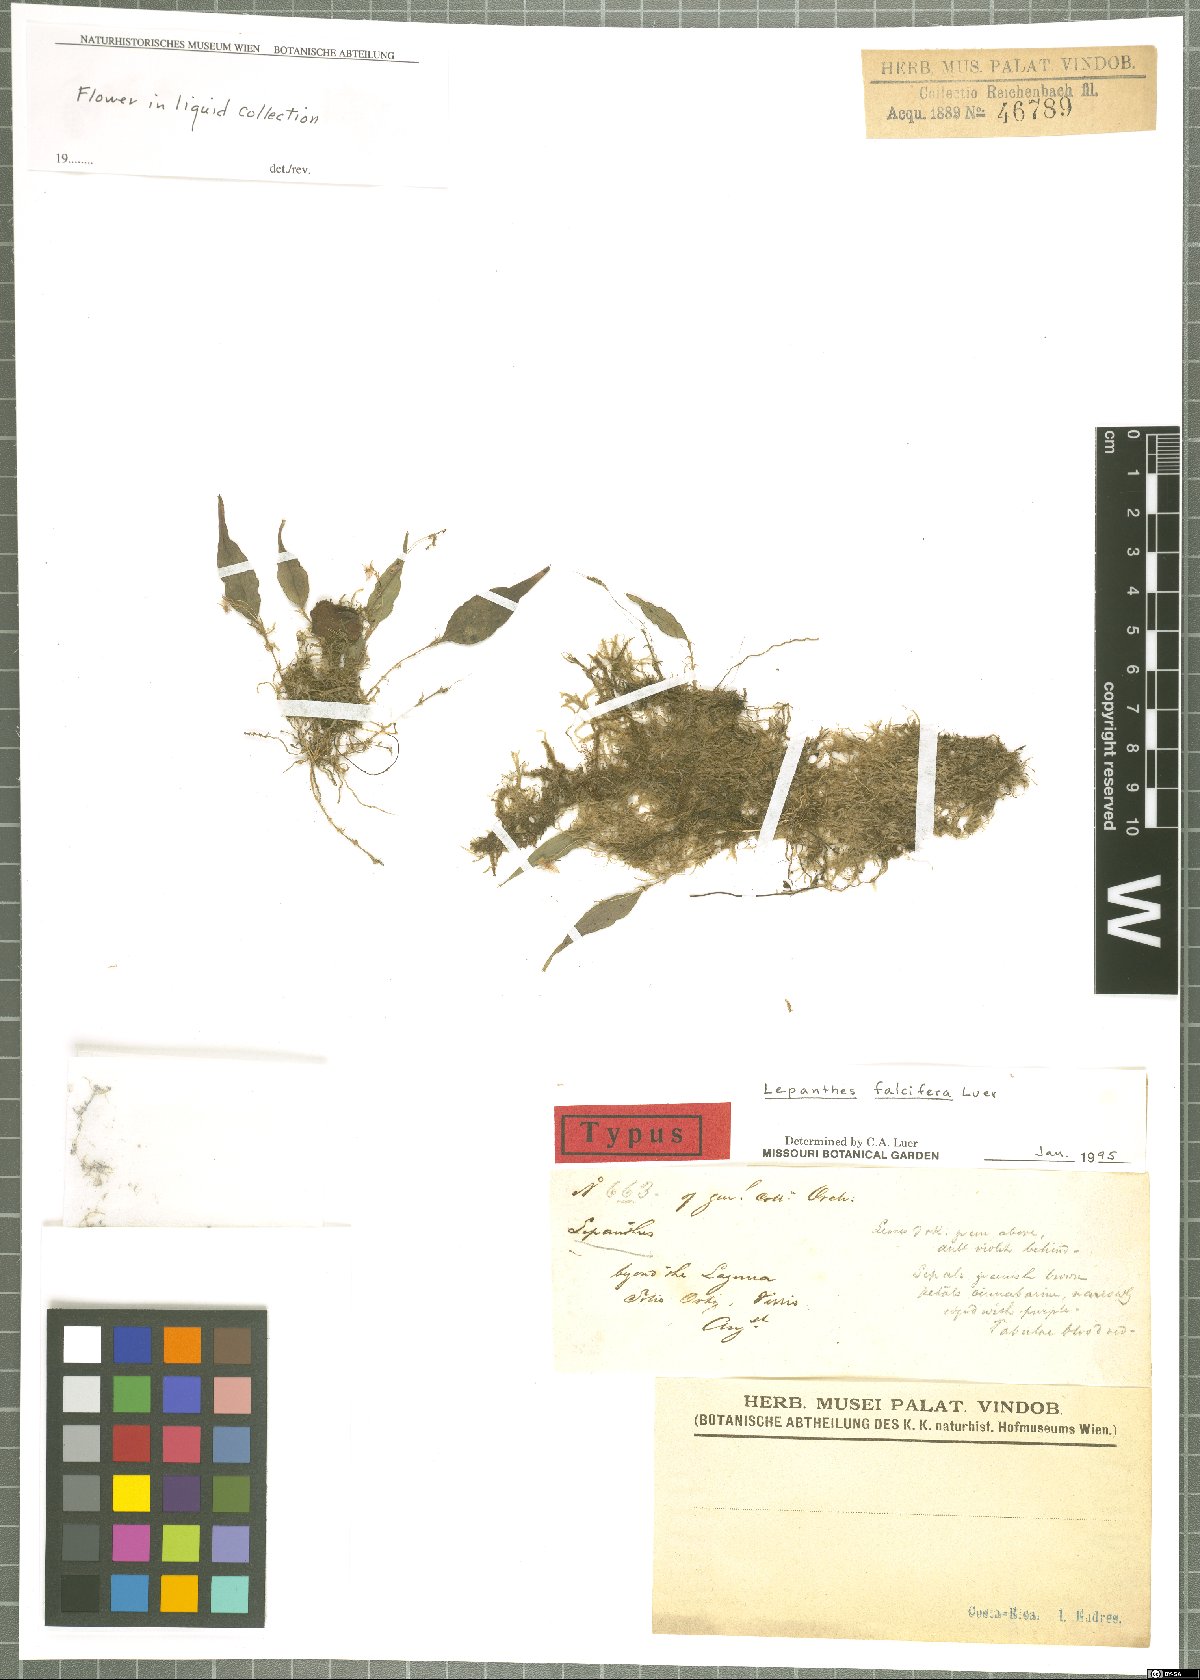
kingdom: Plantae
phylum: Tracheophyta
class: Liliopsida
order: Asparagales
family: Orchidaceae
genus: Lepanthes
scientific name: Lepanthes falcifera
